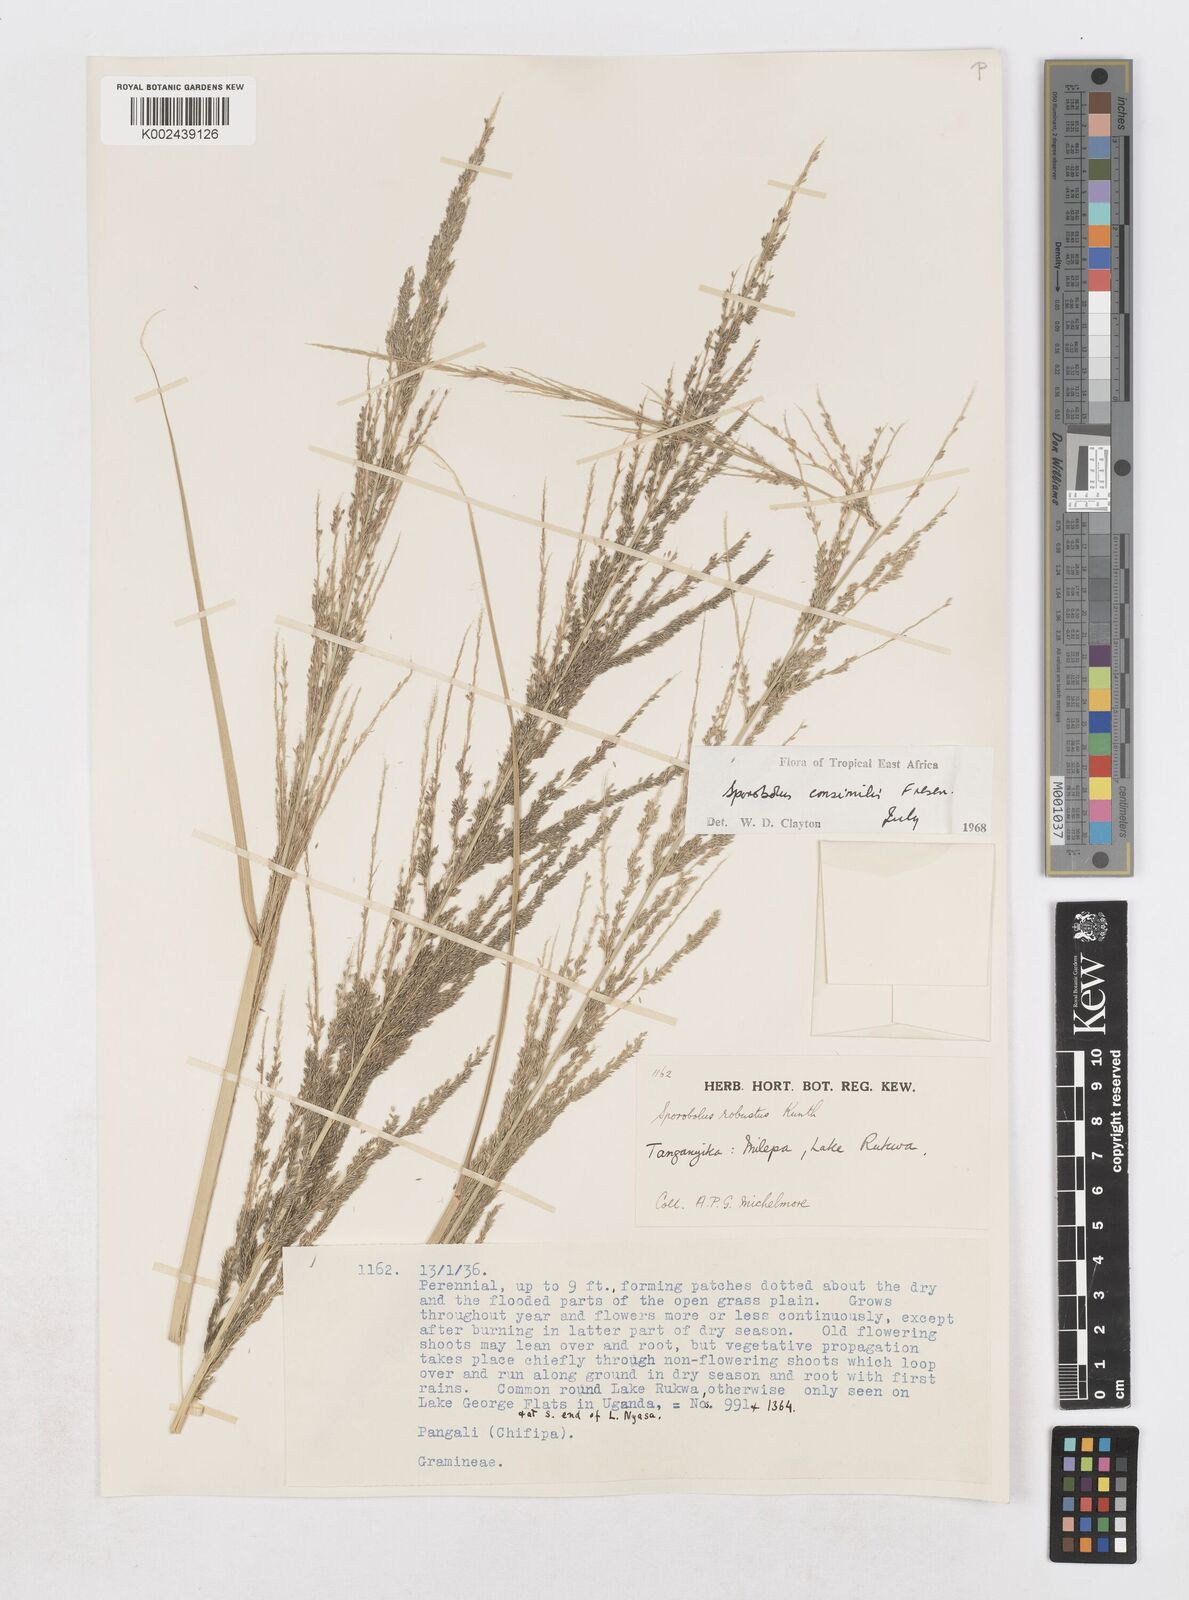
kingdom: Plantae
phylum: Tracheophyta
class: Liliopsida
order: Poales
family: Poaceae
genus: Sporobolus
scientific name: Sporobolus consimilis
